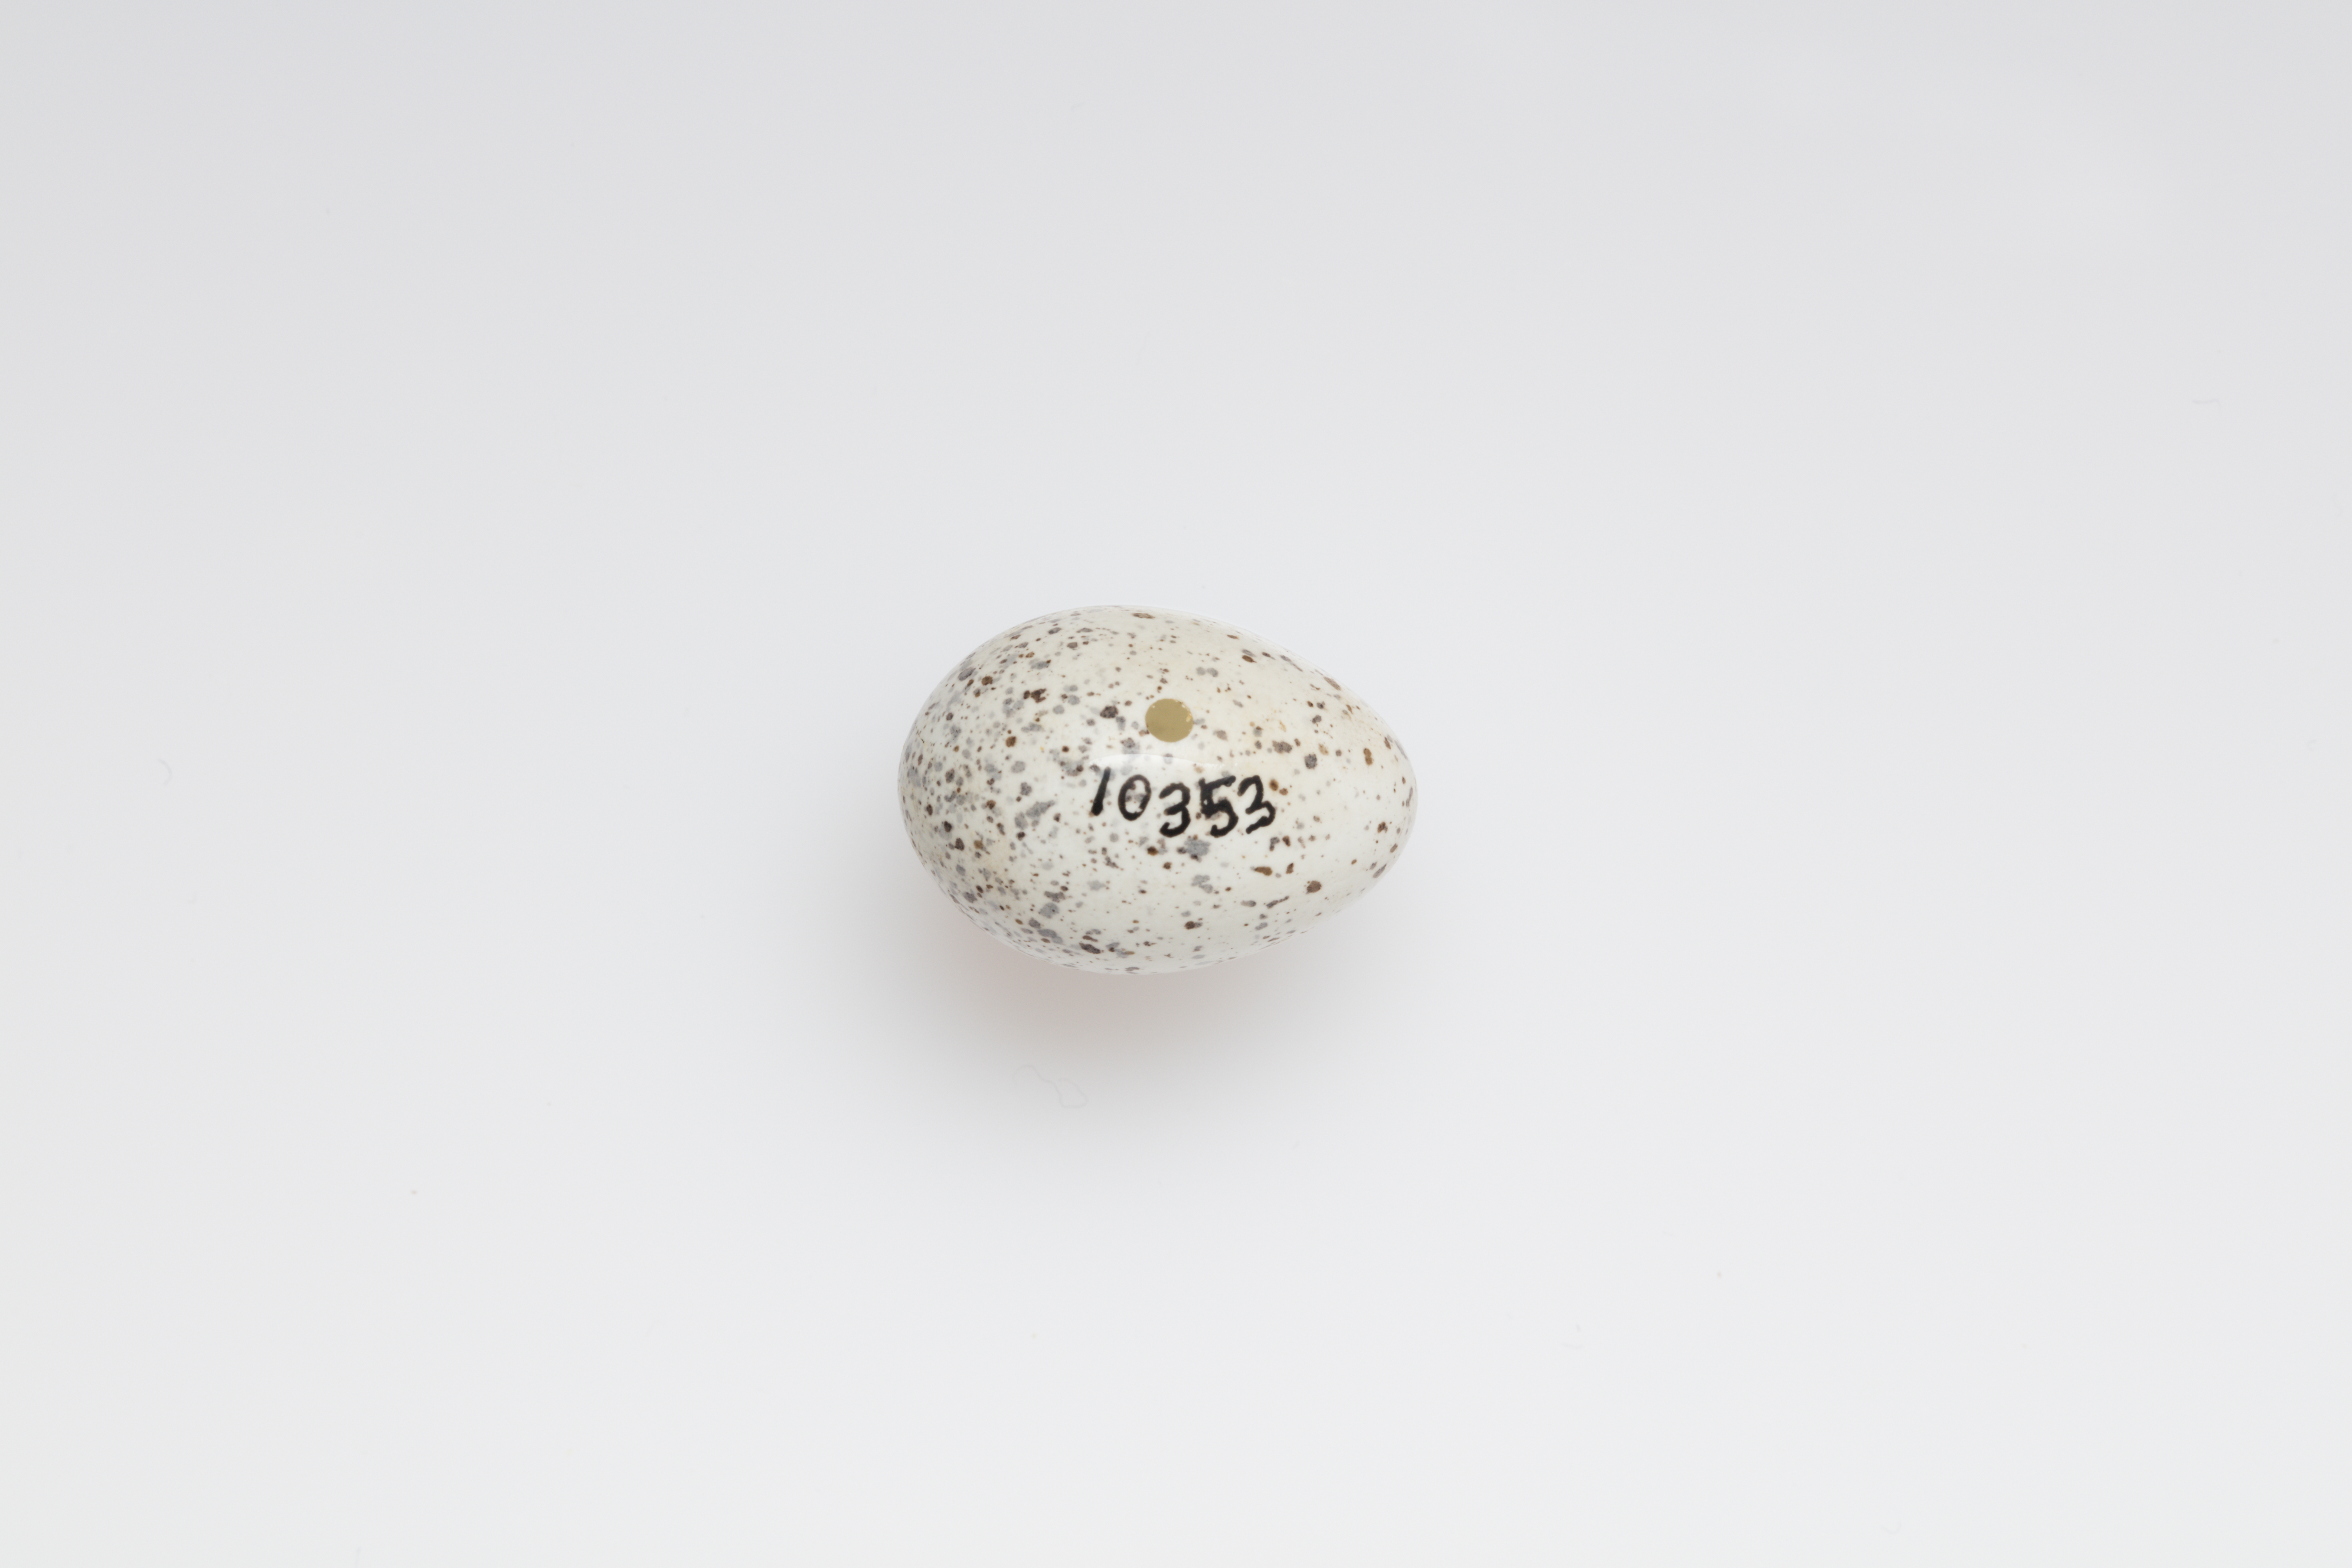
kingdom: Animalia
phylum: Chordata
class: Aves
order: Passeriformes
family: Passeridae
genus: Passer
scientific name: Passer domesticus
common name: House sparrow
